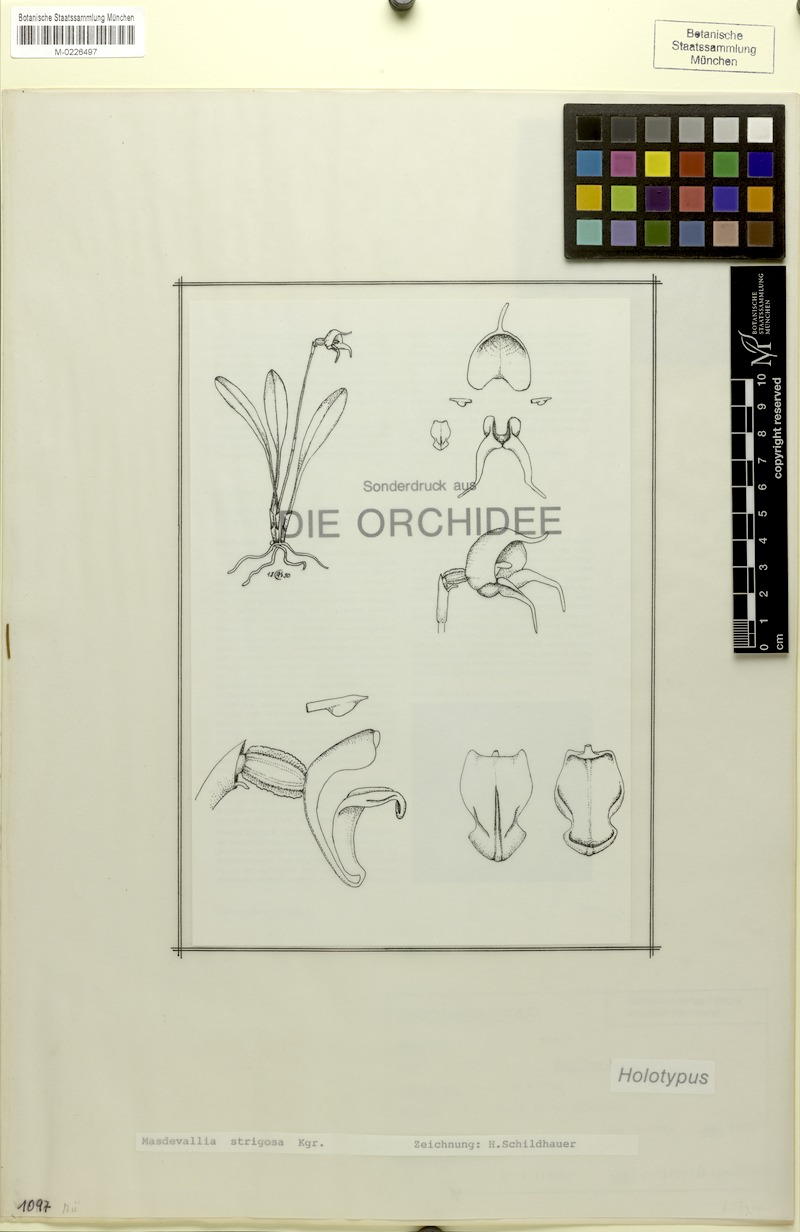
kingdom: Plantae
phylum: Tracheophyta
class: Liliopsida
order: Asparagales
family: Orchidaceae
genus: Masdevallia
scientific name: Masdevallia strigosa
